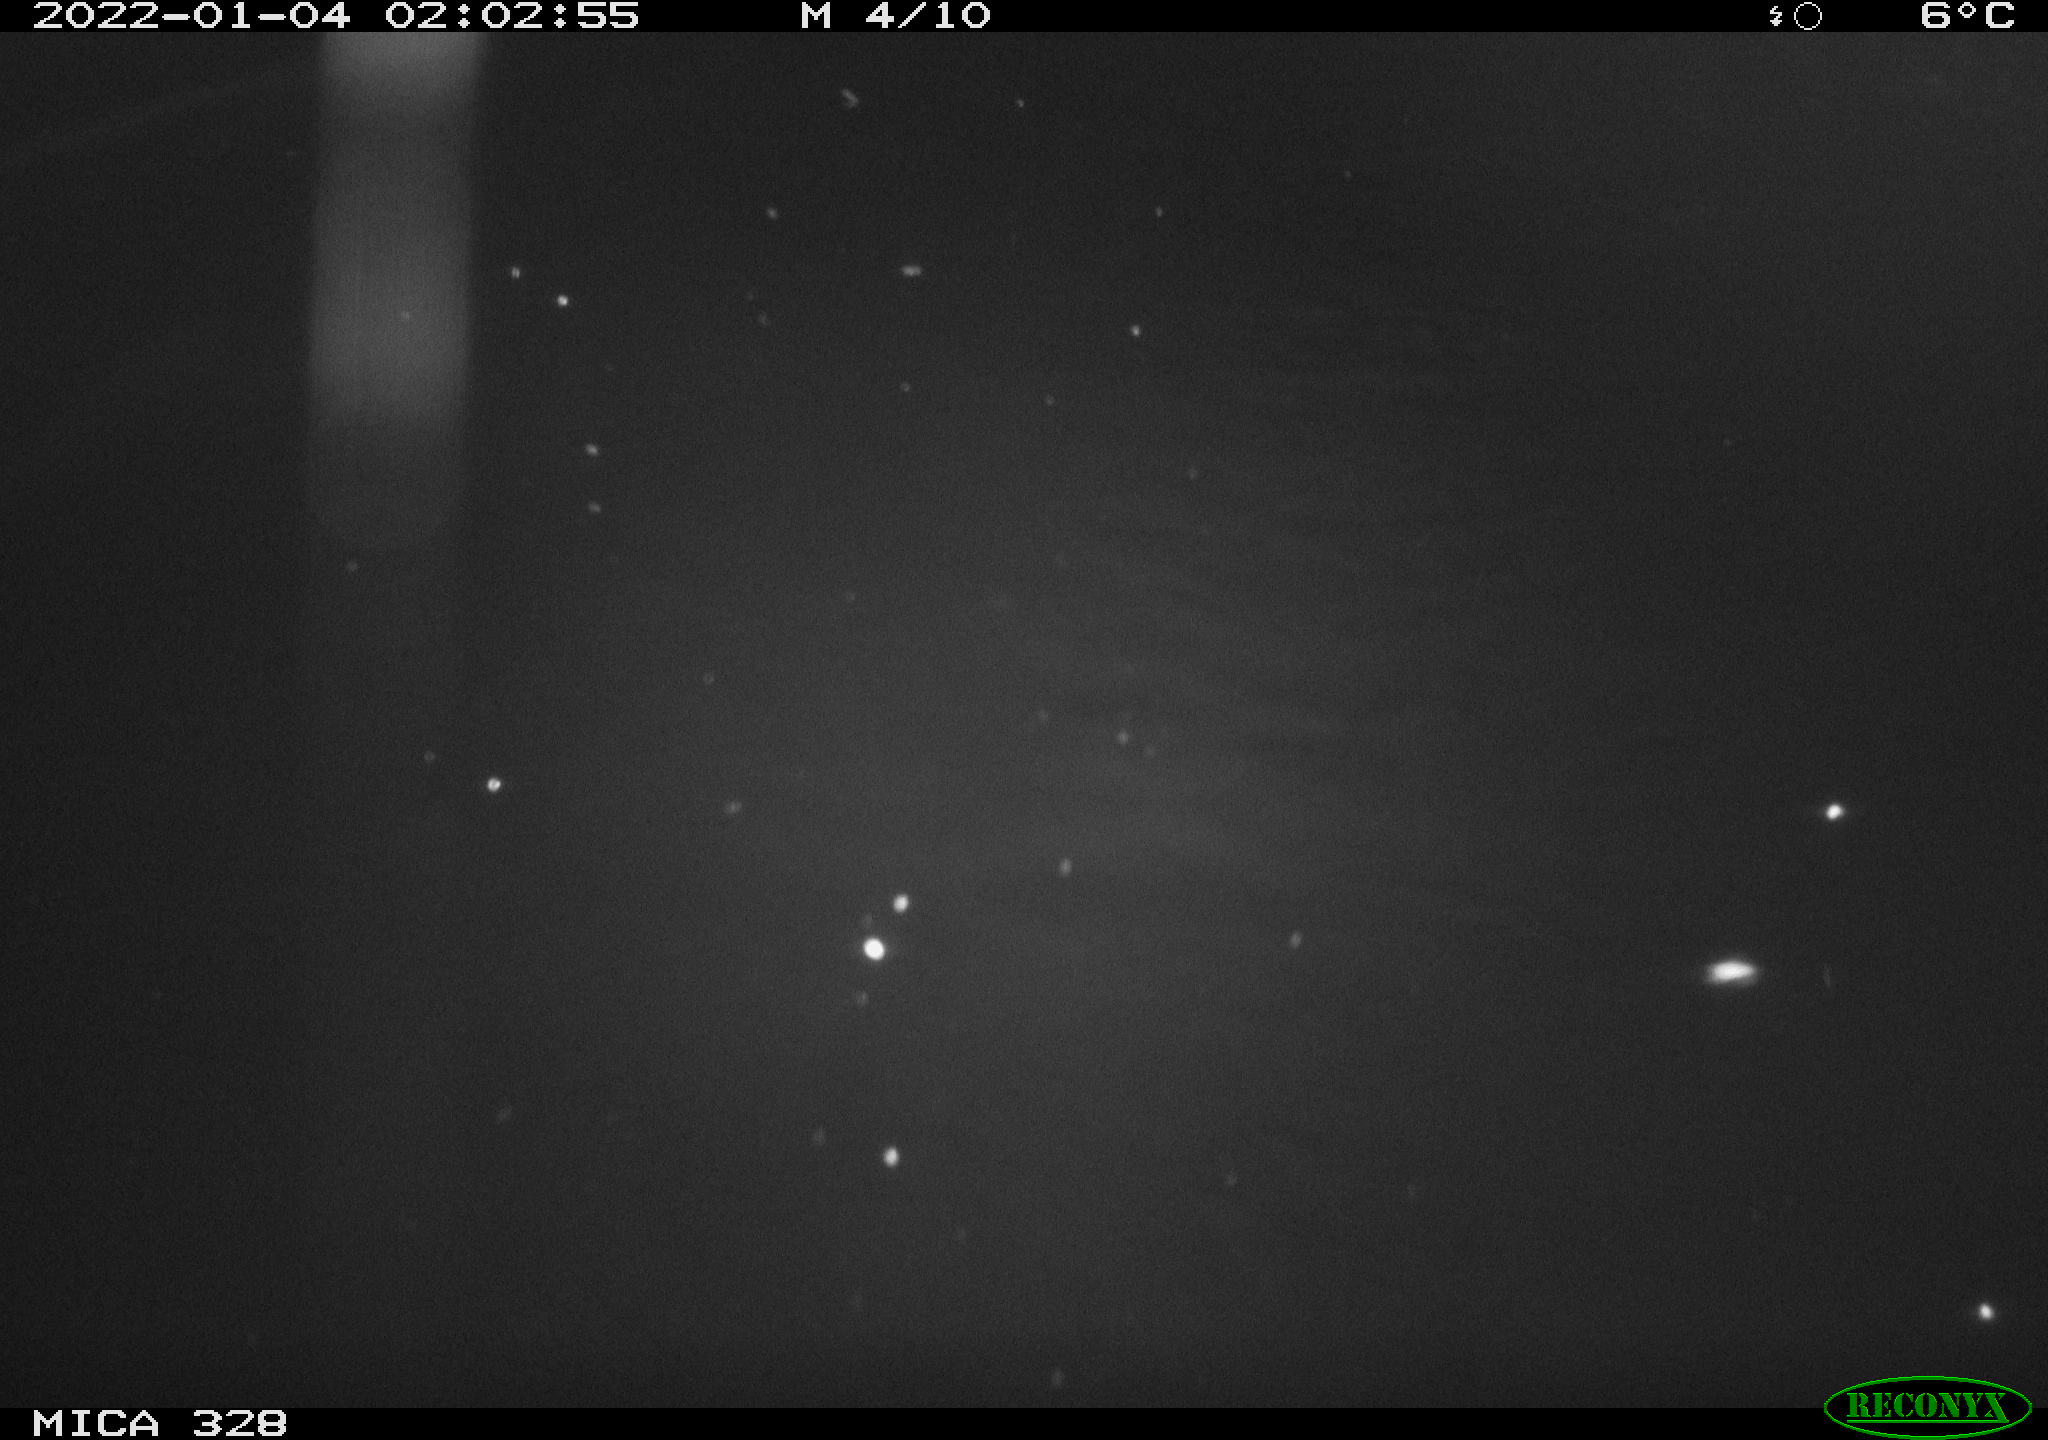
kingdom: Animalia
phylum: Chordata
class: Mammalia
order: Rodentia
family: Cricetidae
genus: Ondatra
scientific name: Ondatra zibethicus
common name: Muskrat
